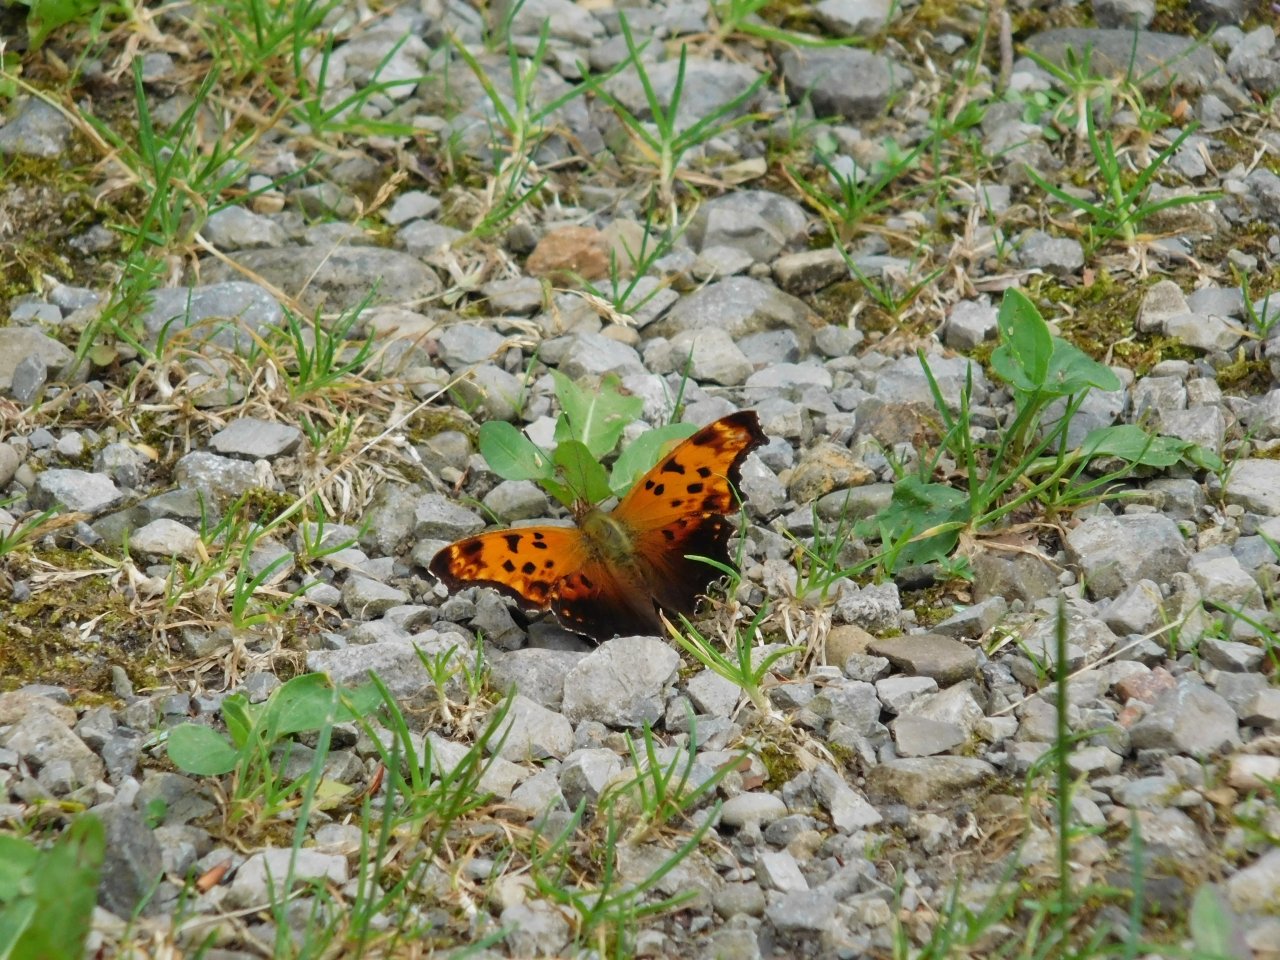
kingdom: Animalia
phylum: Arthropoda
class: Insecta
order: Lepidoptera
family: Nymphalidae
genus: Polygonia
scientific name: Polygonia comma
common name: Eastern Comma
